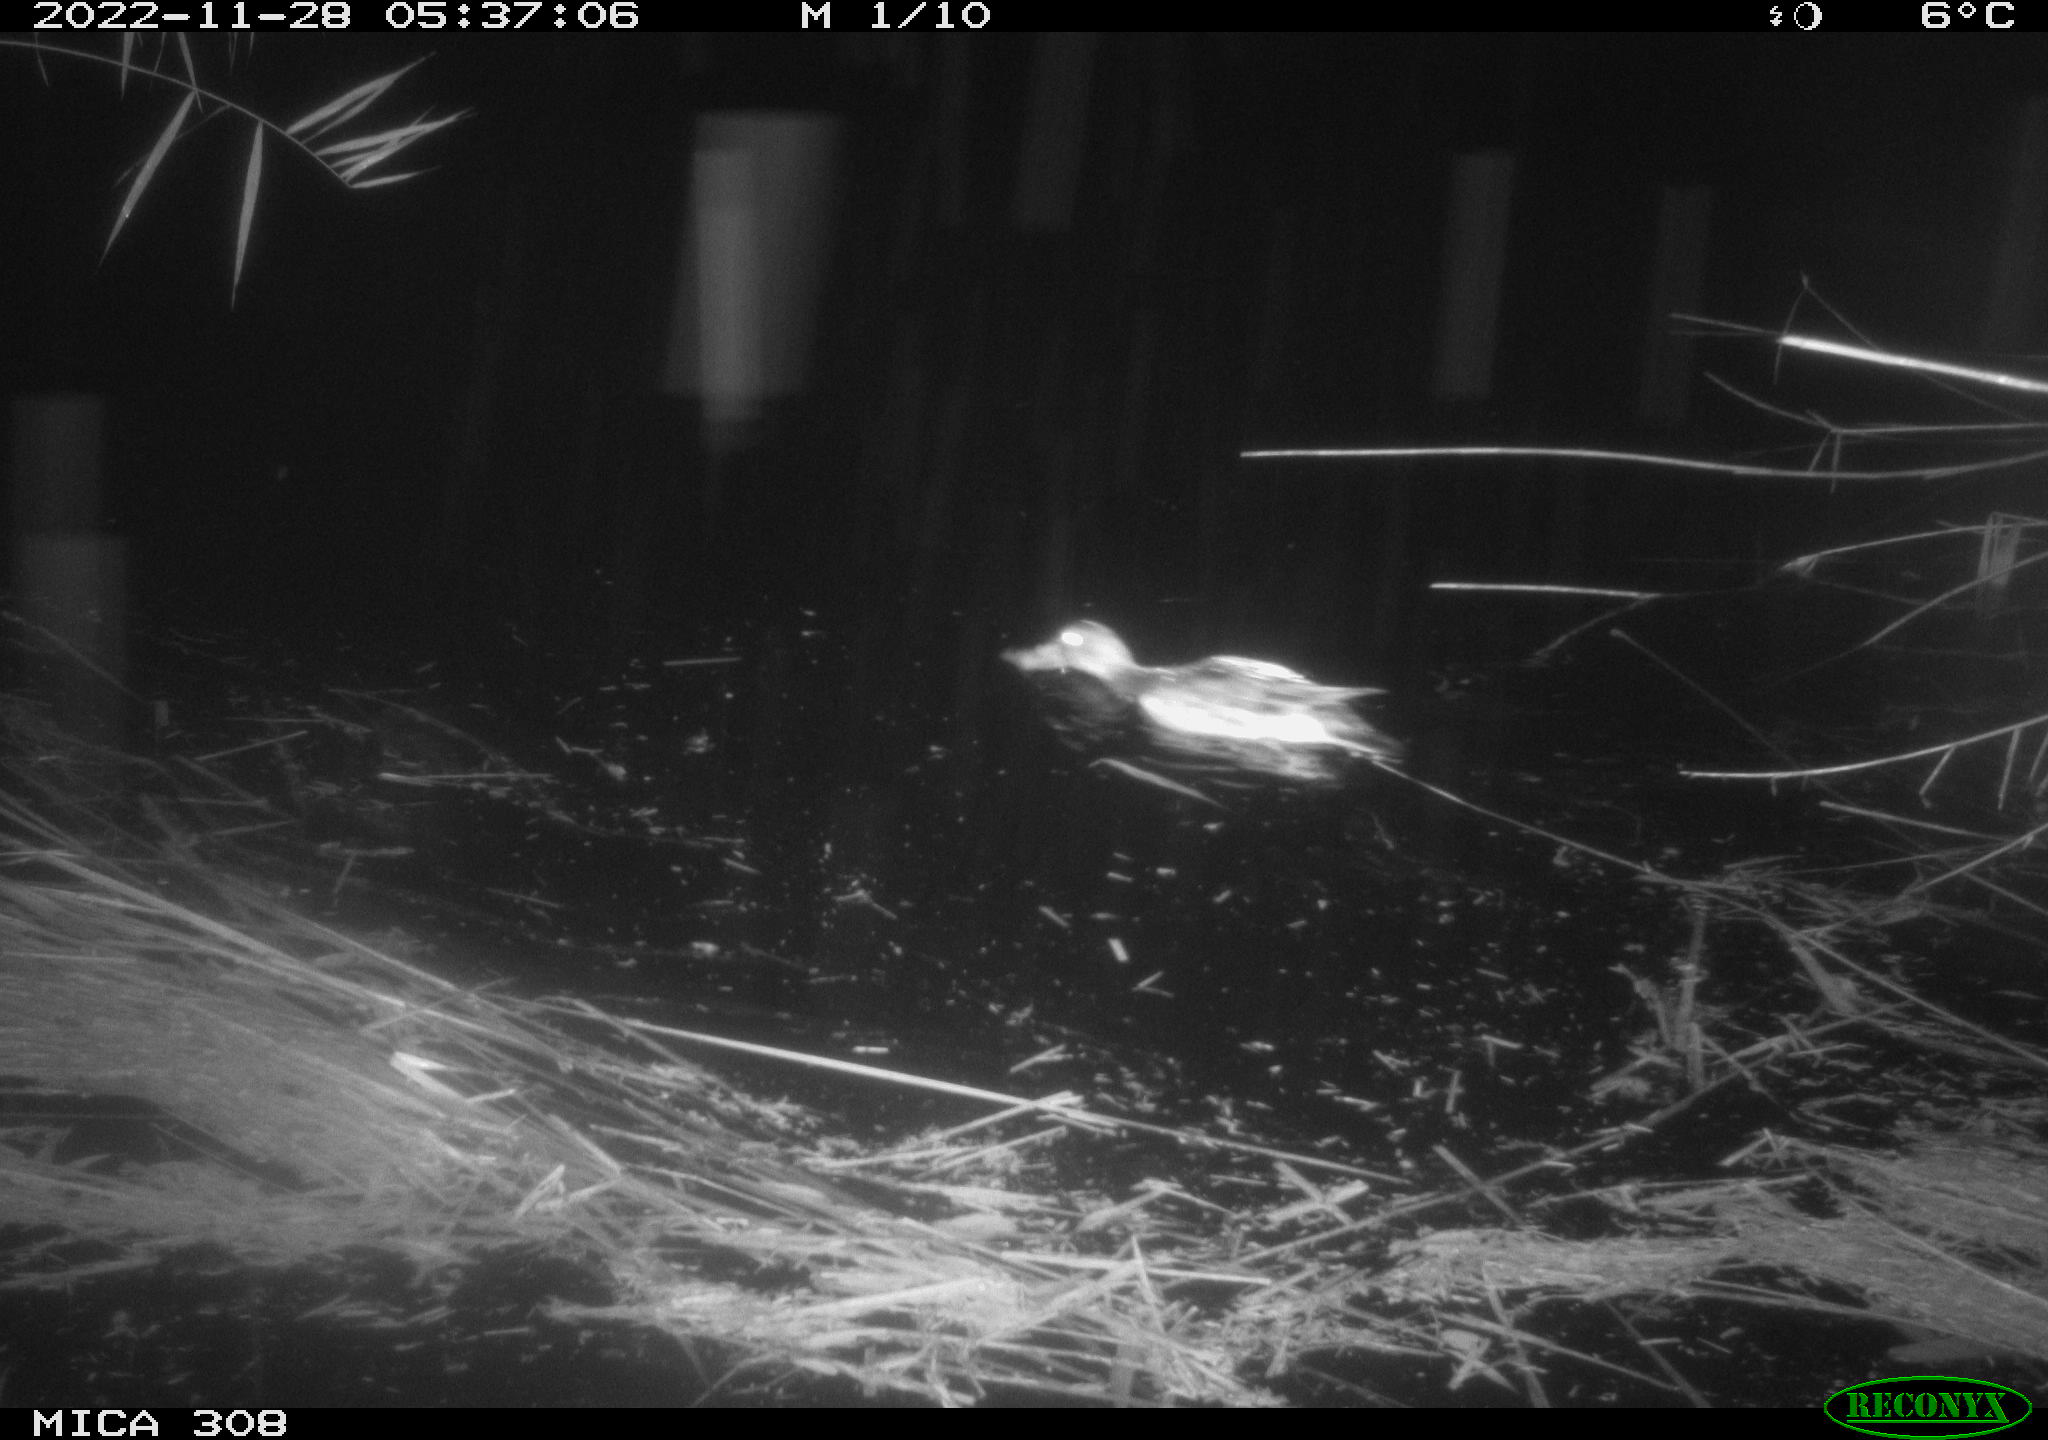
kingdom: Animalia
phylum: Chordata
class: Aves
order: Anseriformes
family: Anatidae
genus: Anas
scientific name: Anas
